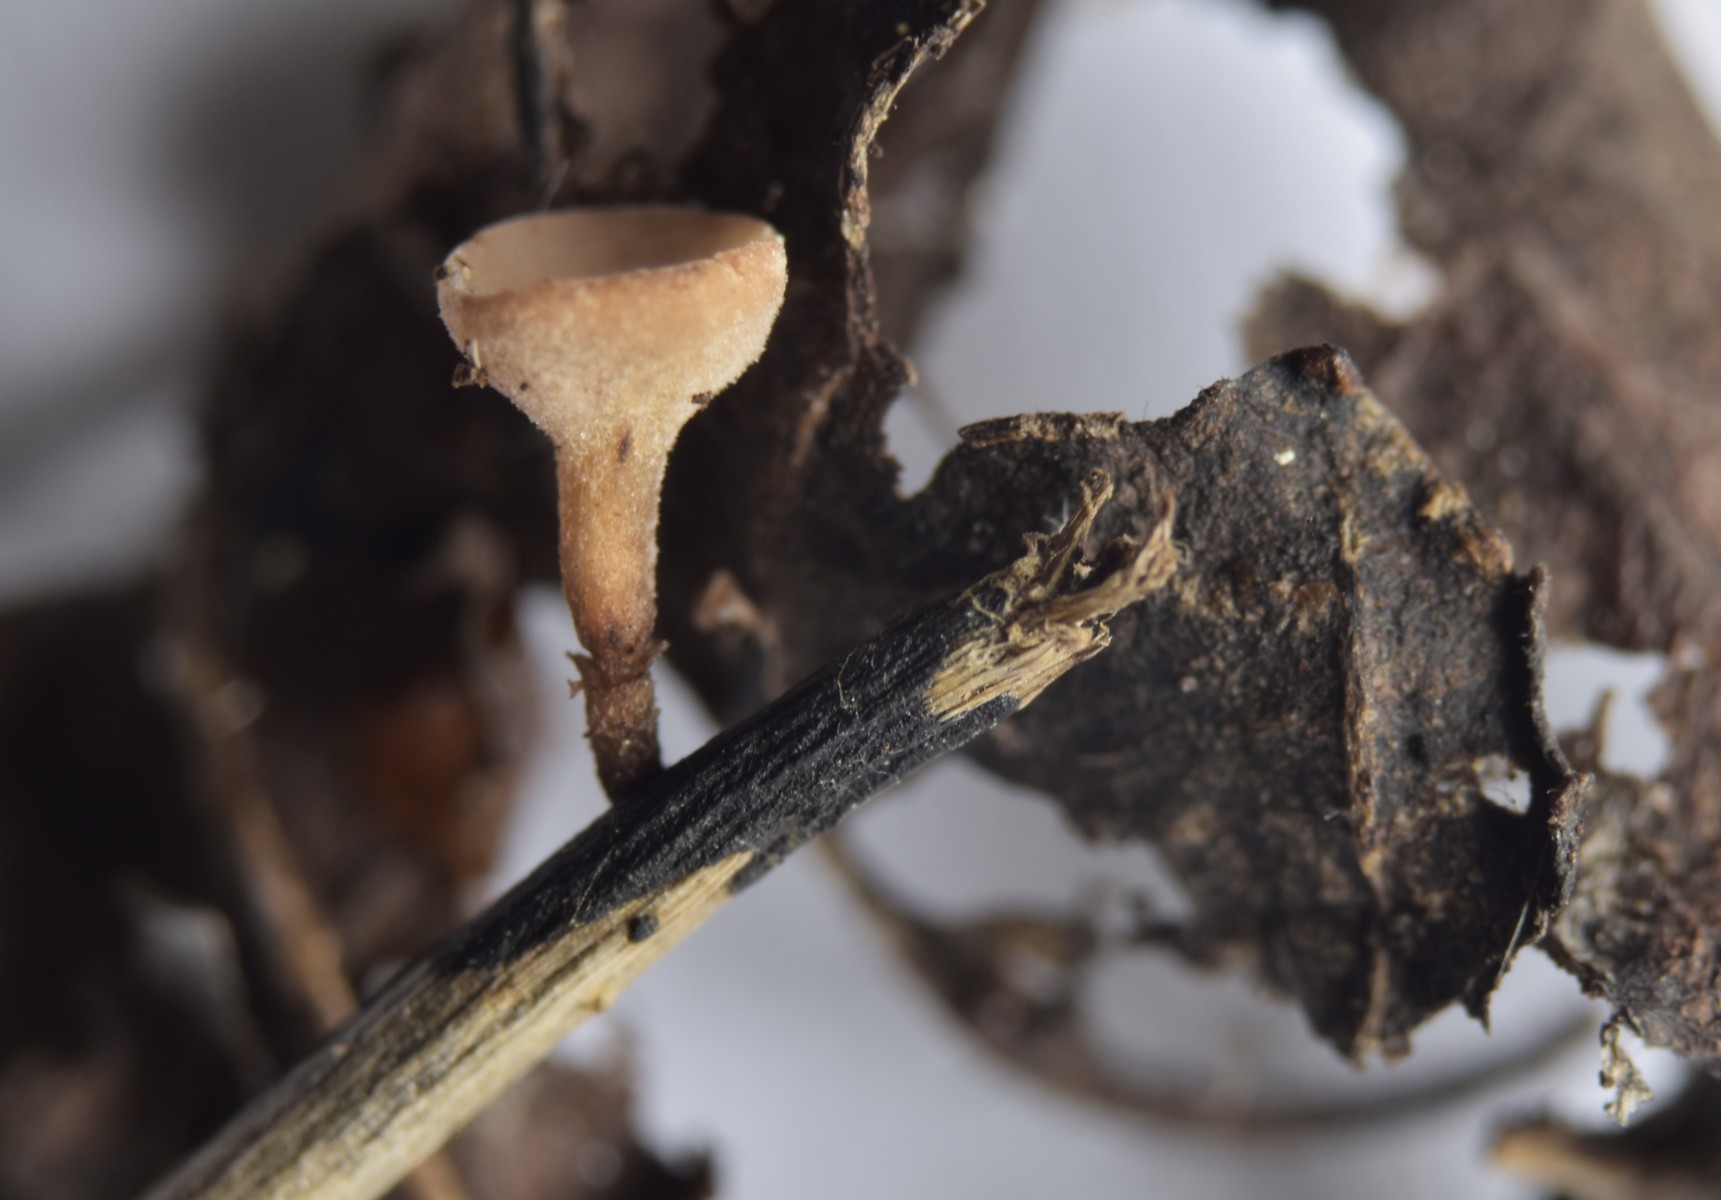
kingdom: Fungi
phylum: Ascomycota
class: Leotiomycetes
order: Helotiales
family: Rutstroemiaceae
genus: Rutstroemia
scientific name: Rutstroemia conformata
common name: elleblads-brunskive
